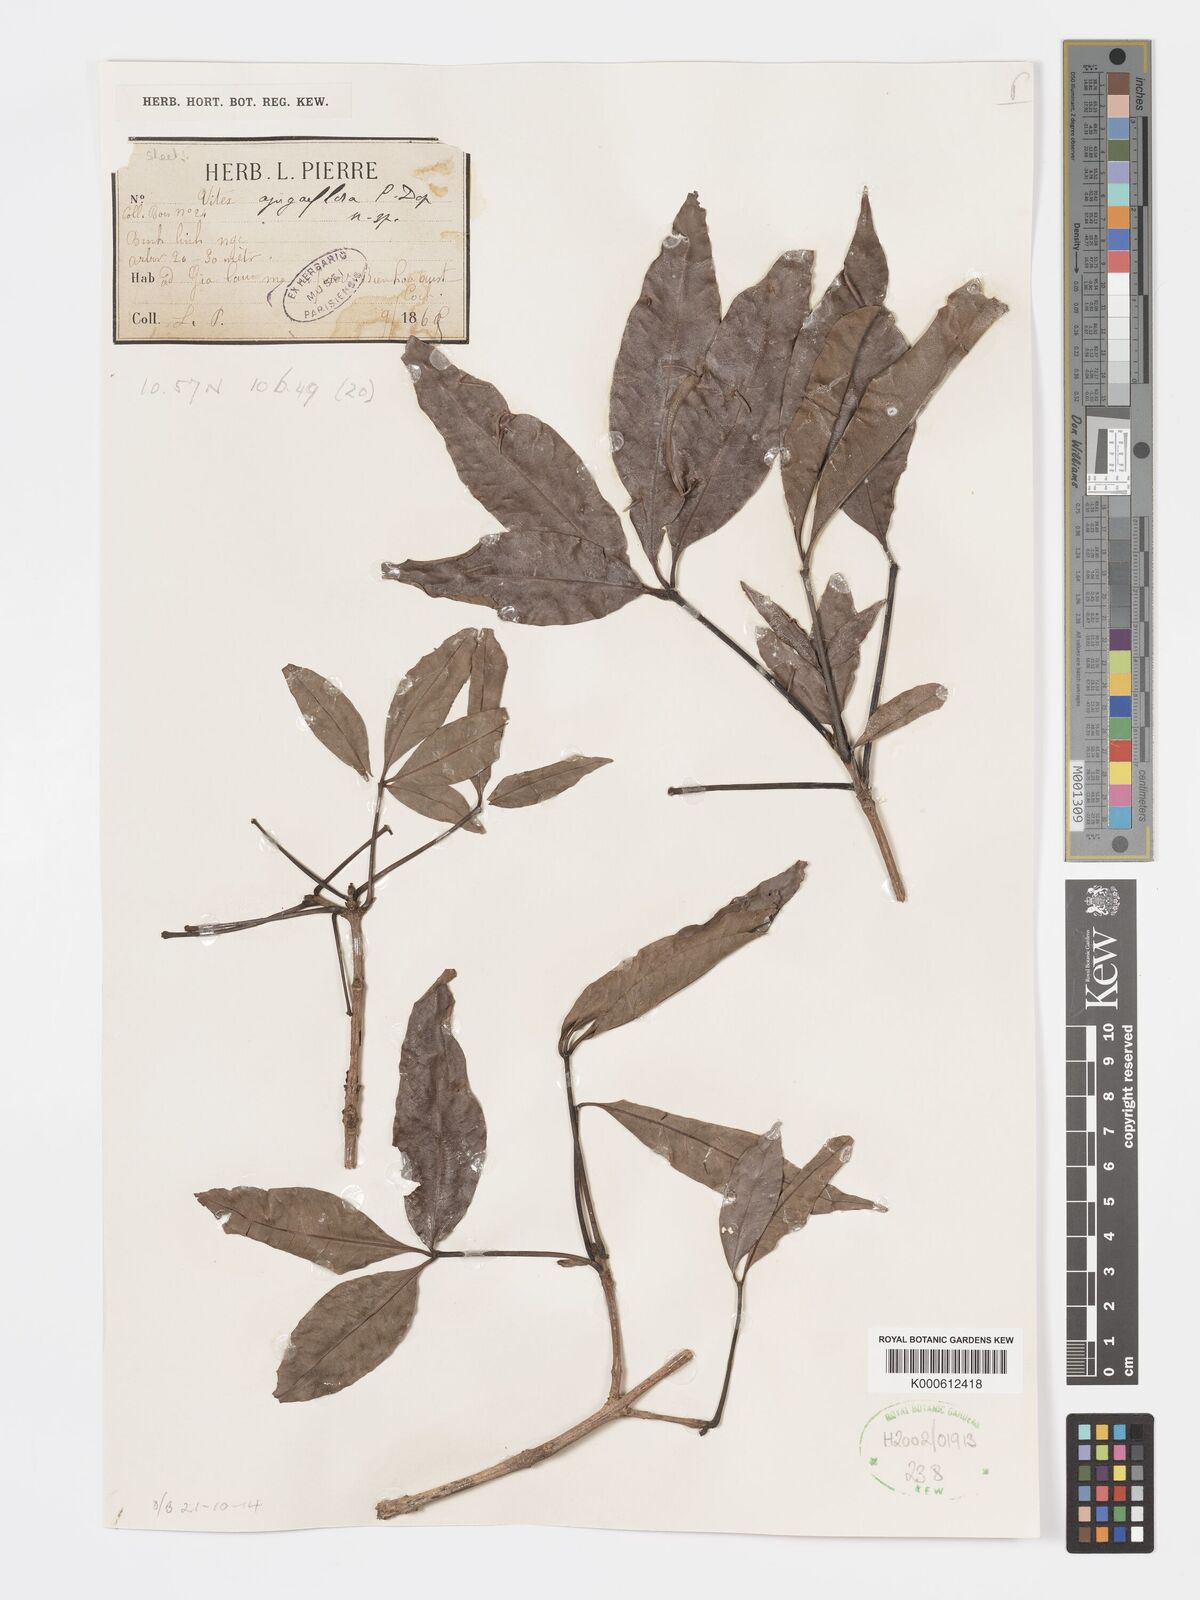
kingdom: Plantae
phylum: Tracheophyta
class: Magnoliopsida
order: Lamiales
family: Lamiaceae
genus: Vitex
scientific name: Vitex ajugiflora
